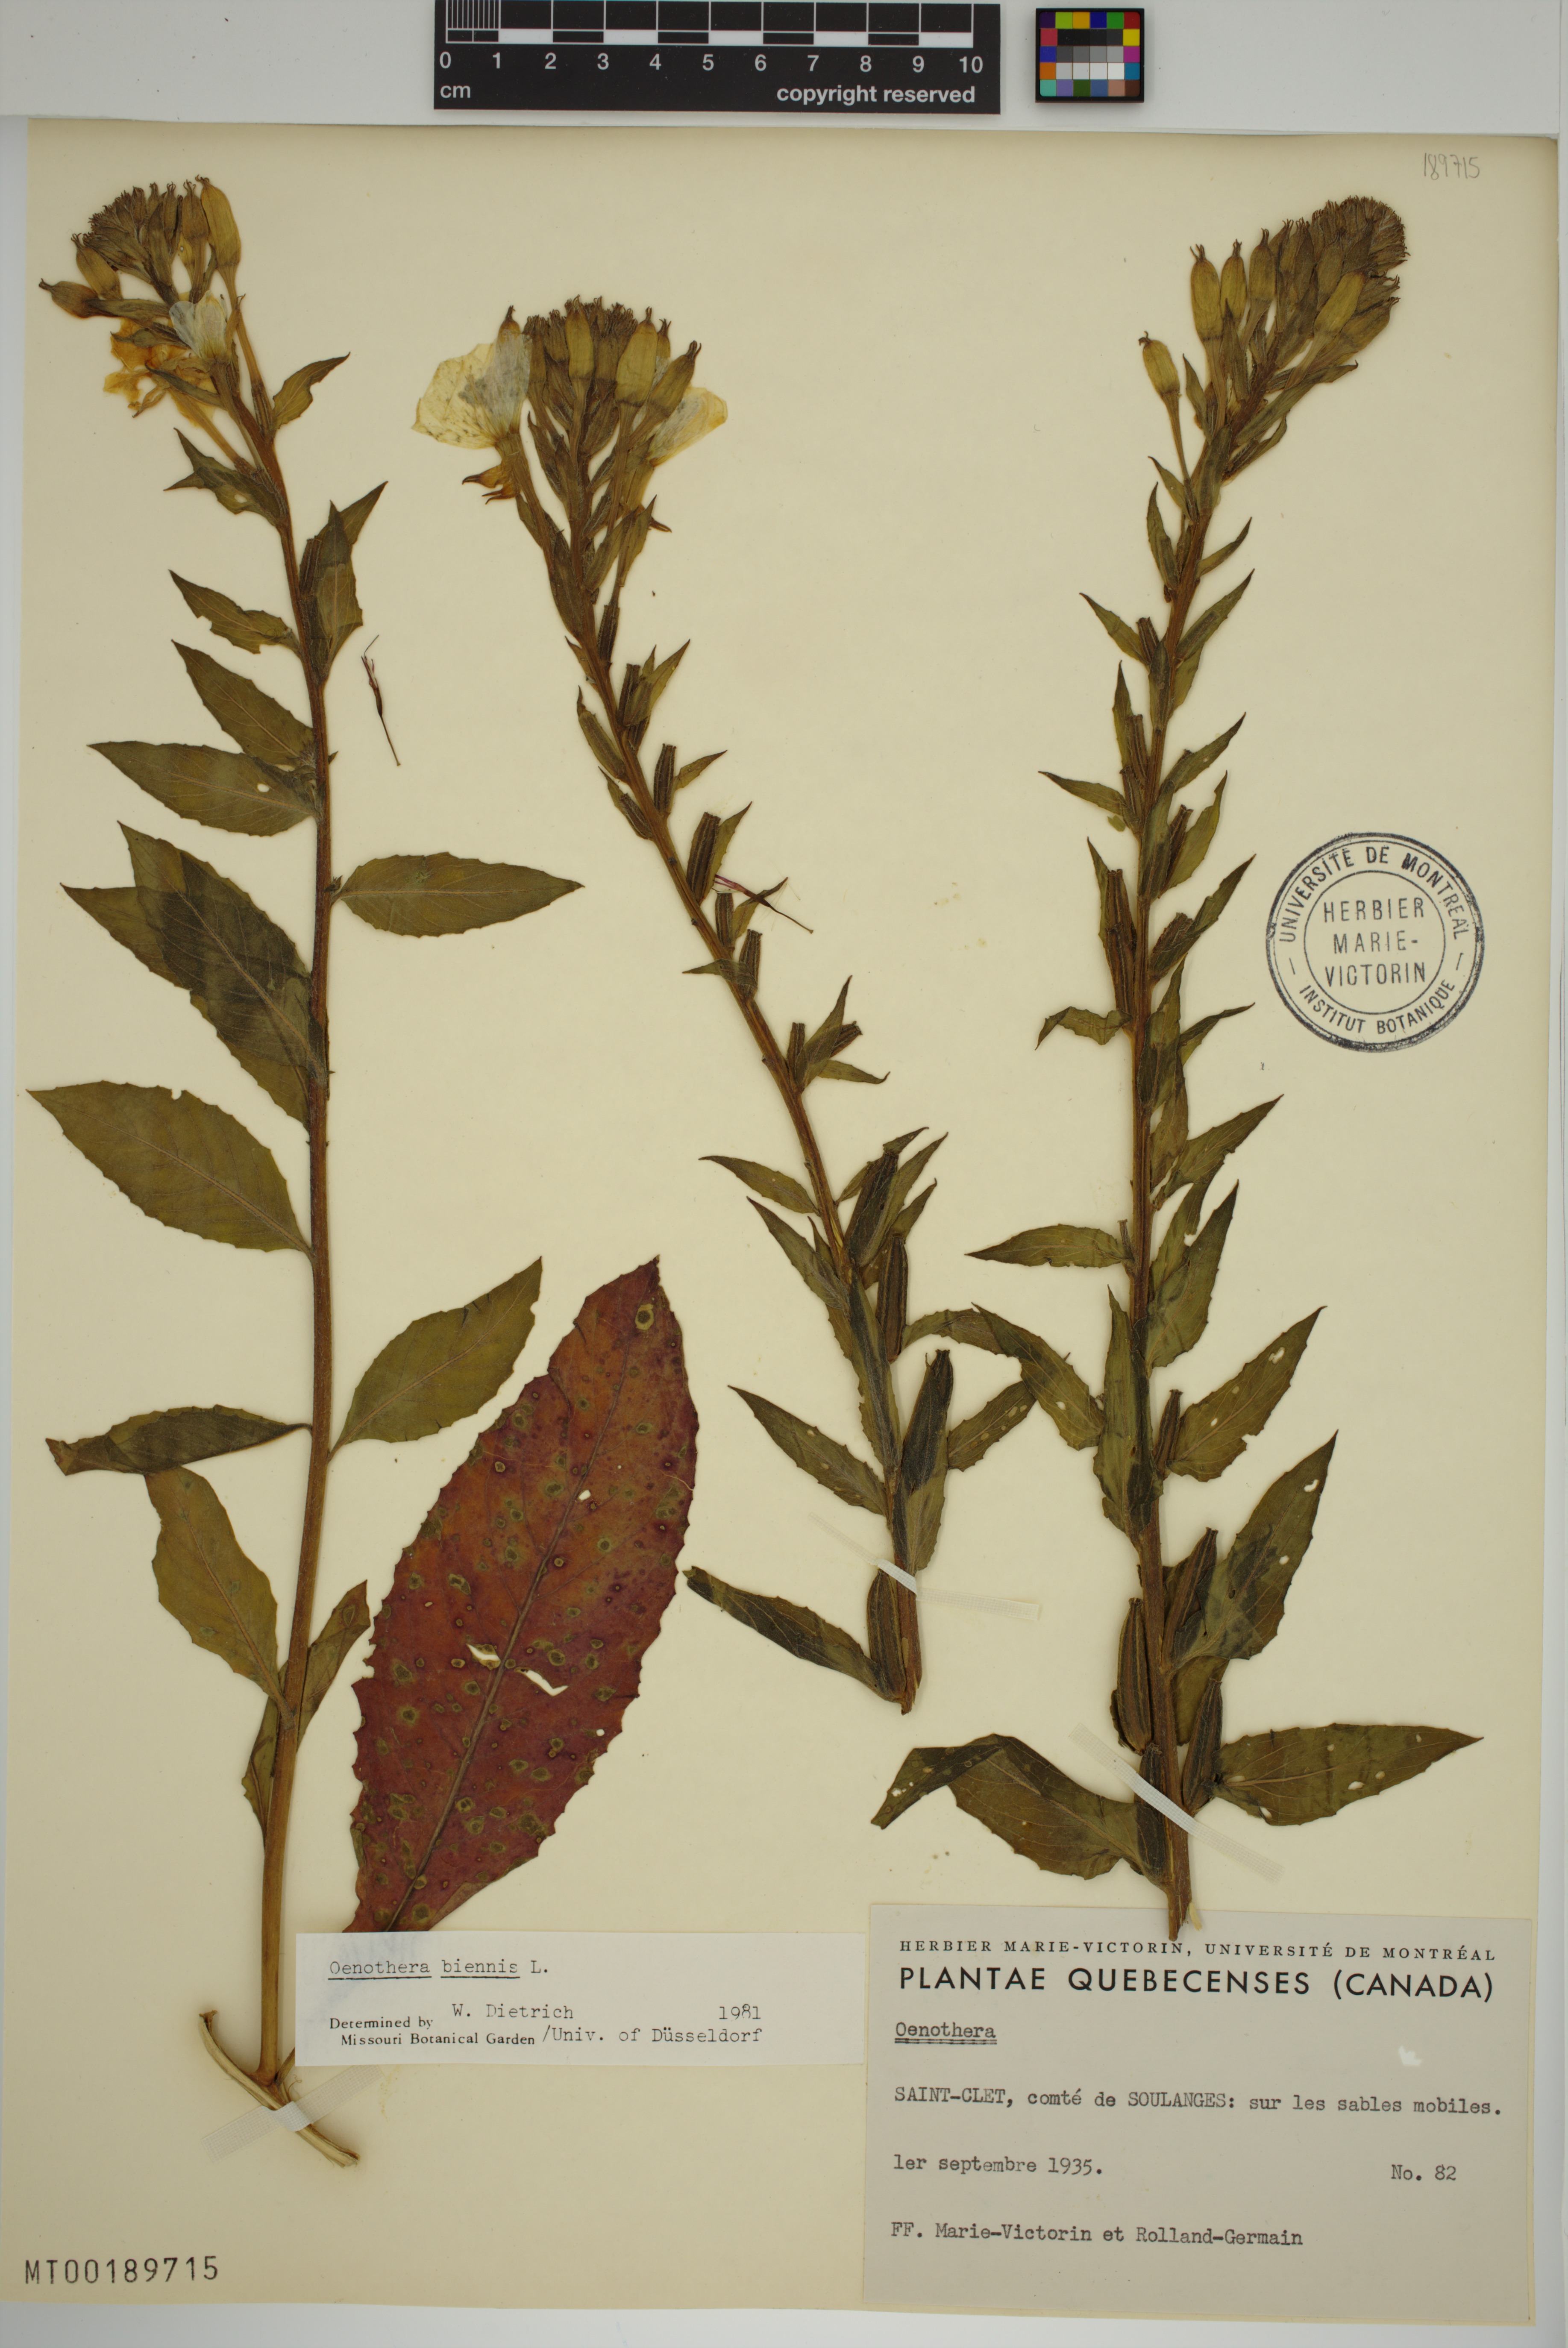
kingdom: Plantae
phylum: Tracheophyta
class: Magnoliopsida
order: Myrtales
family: Onagraceae
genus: Oenothera
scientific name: Oenothera biennis
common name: Common evening-primrose
